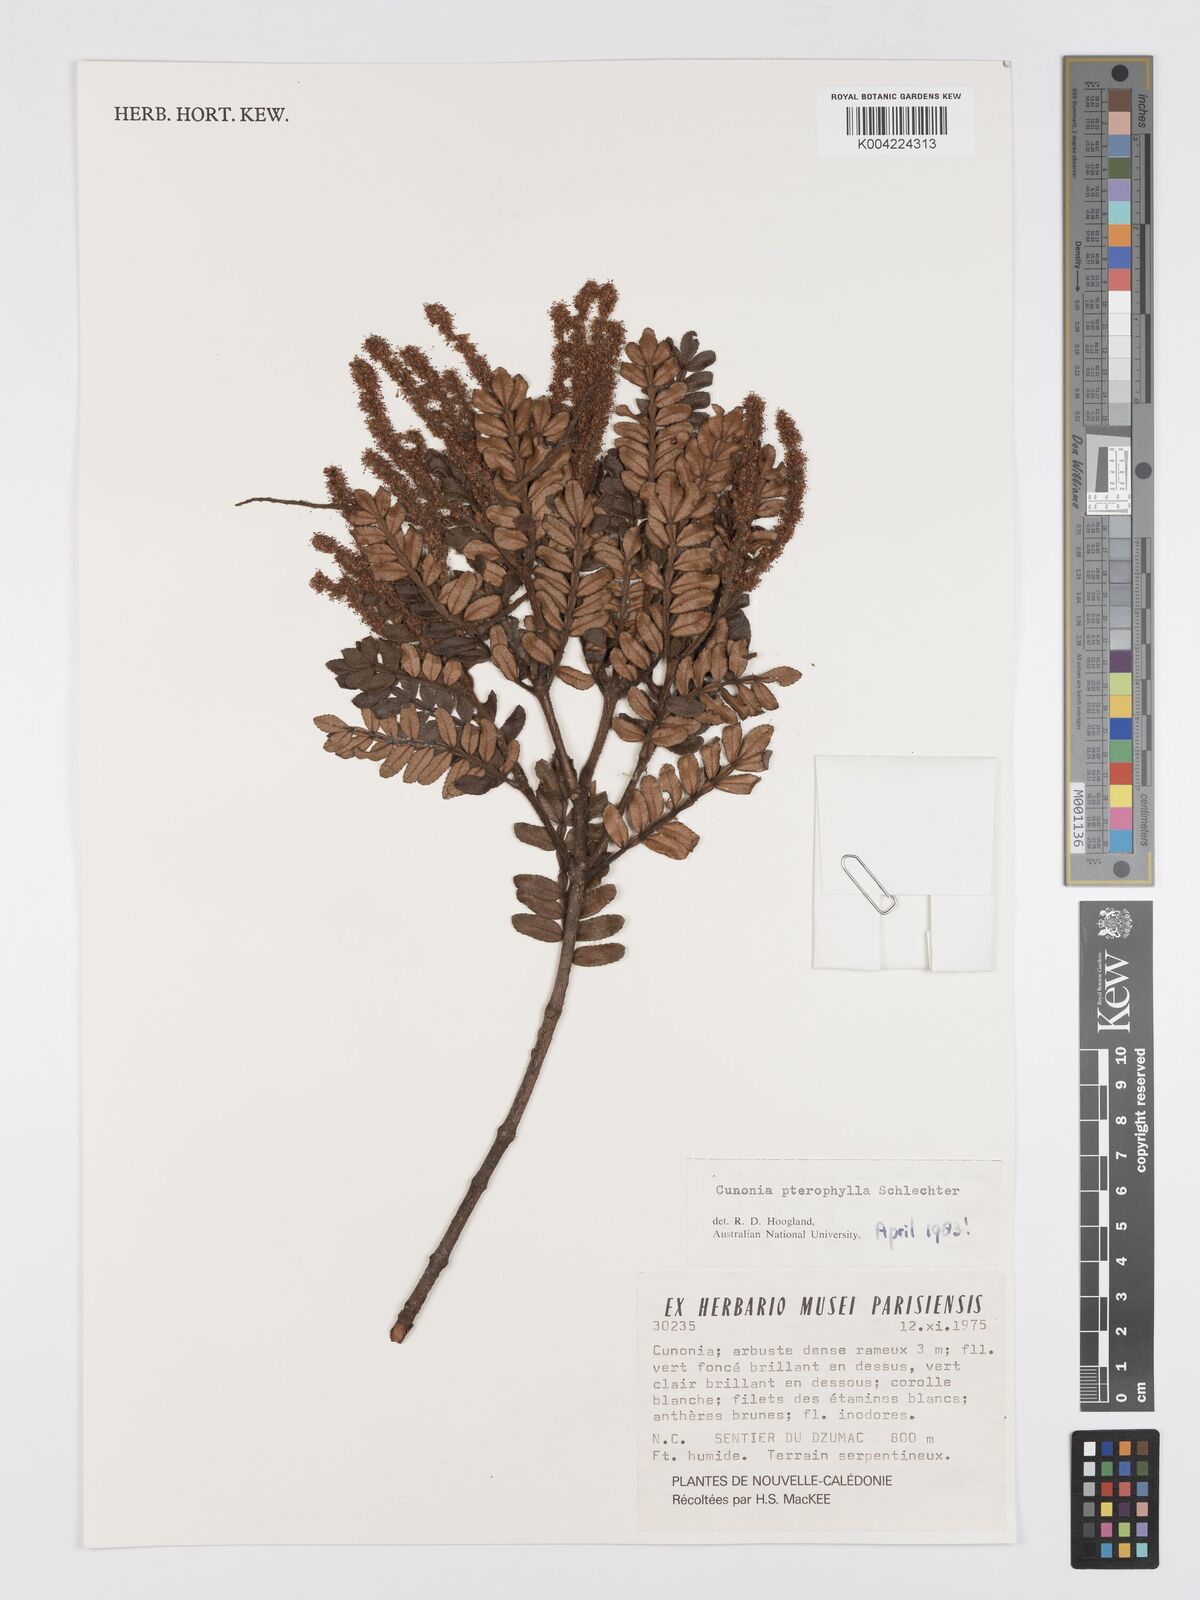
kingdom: Plantae
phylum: Tracheophyta
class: Magnoliopsida
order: Oxalidales
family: Cunoniaceae
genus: Cunonia
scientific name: Cunonia pterophylla
